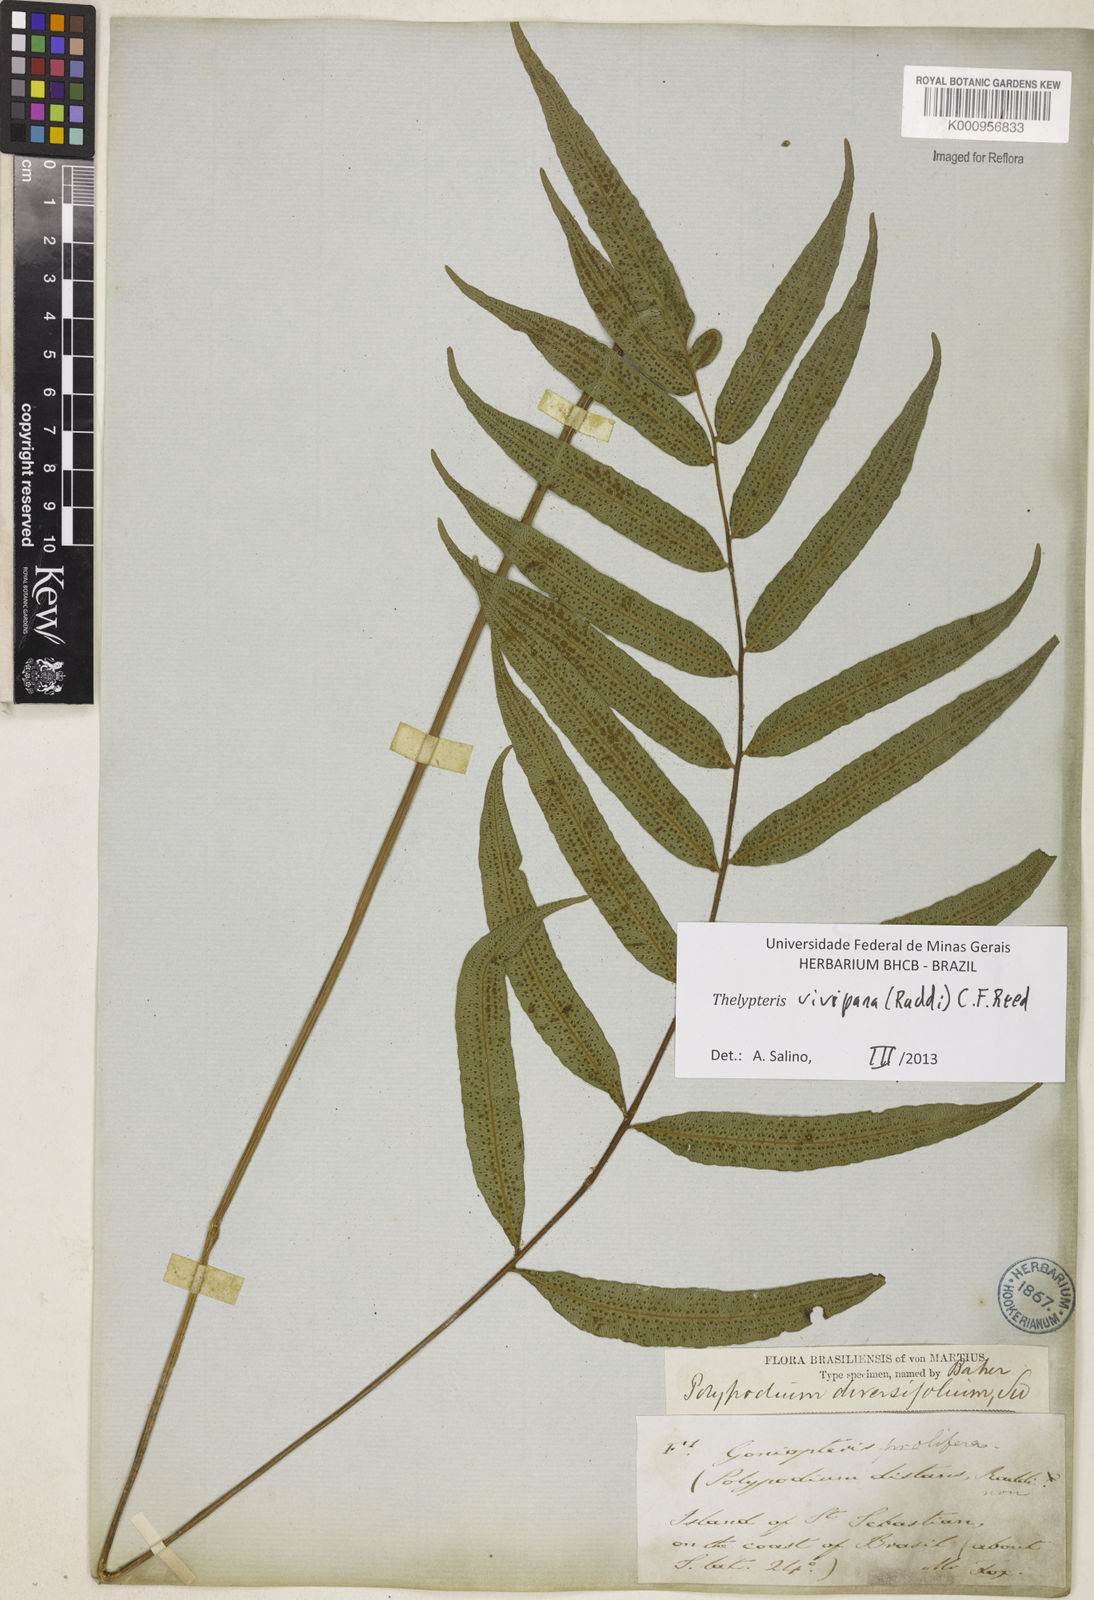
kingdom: Plantae
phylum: Tracheophyta
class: Polypodiopsida
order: Polypodiales
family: Thelypteridaceae
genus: Goniopteris
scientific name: Goniopteris vivipara
